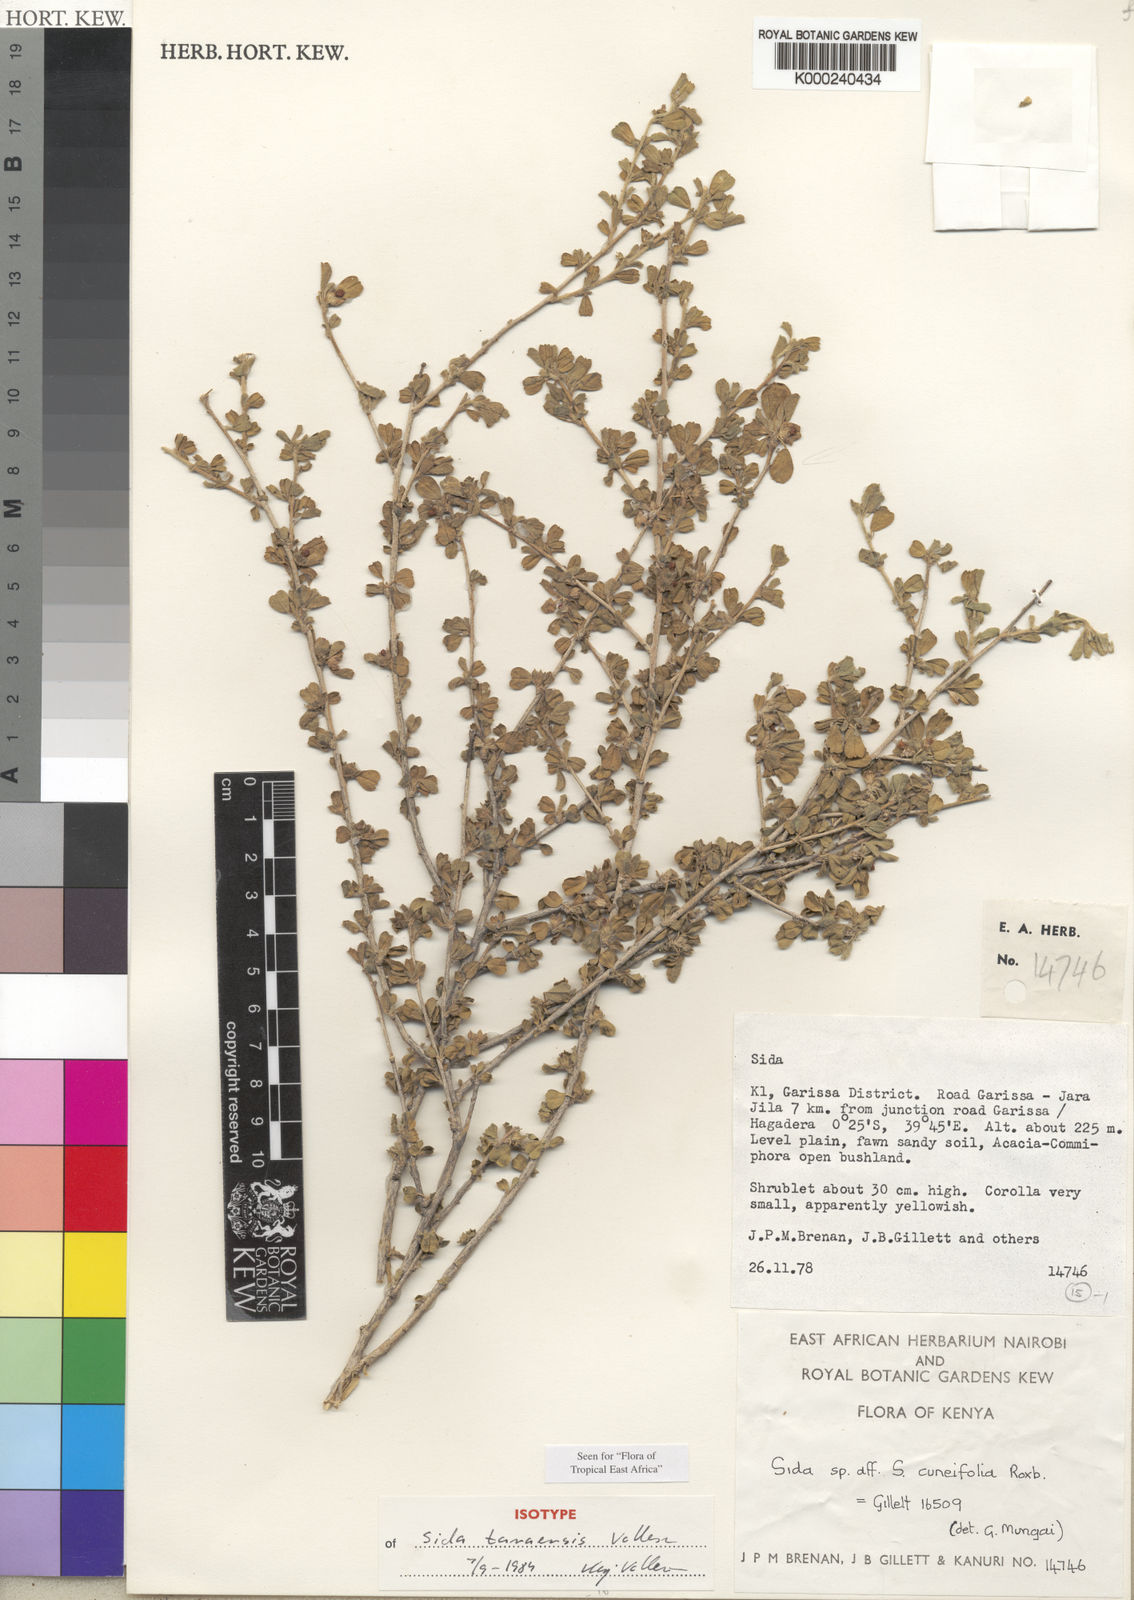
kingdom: Plantae
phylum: Tracheophyta
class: Magnoliopsida
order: Malvales
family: Malvaceae
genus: Sida
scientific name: Sida tanaensis
